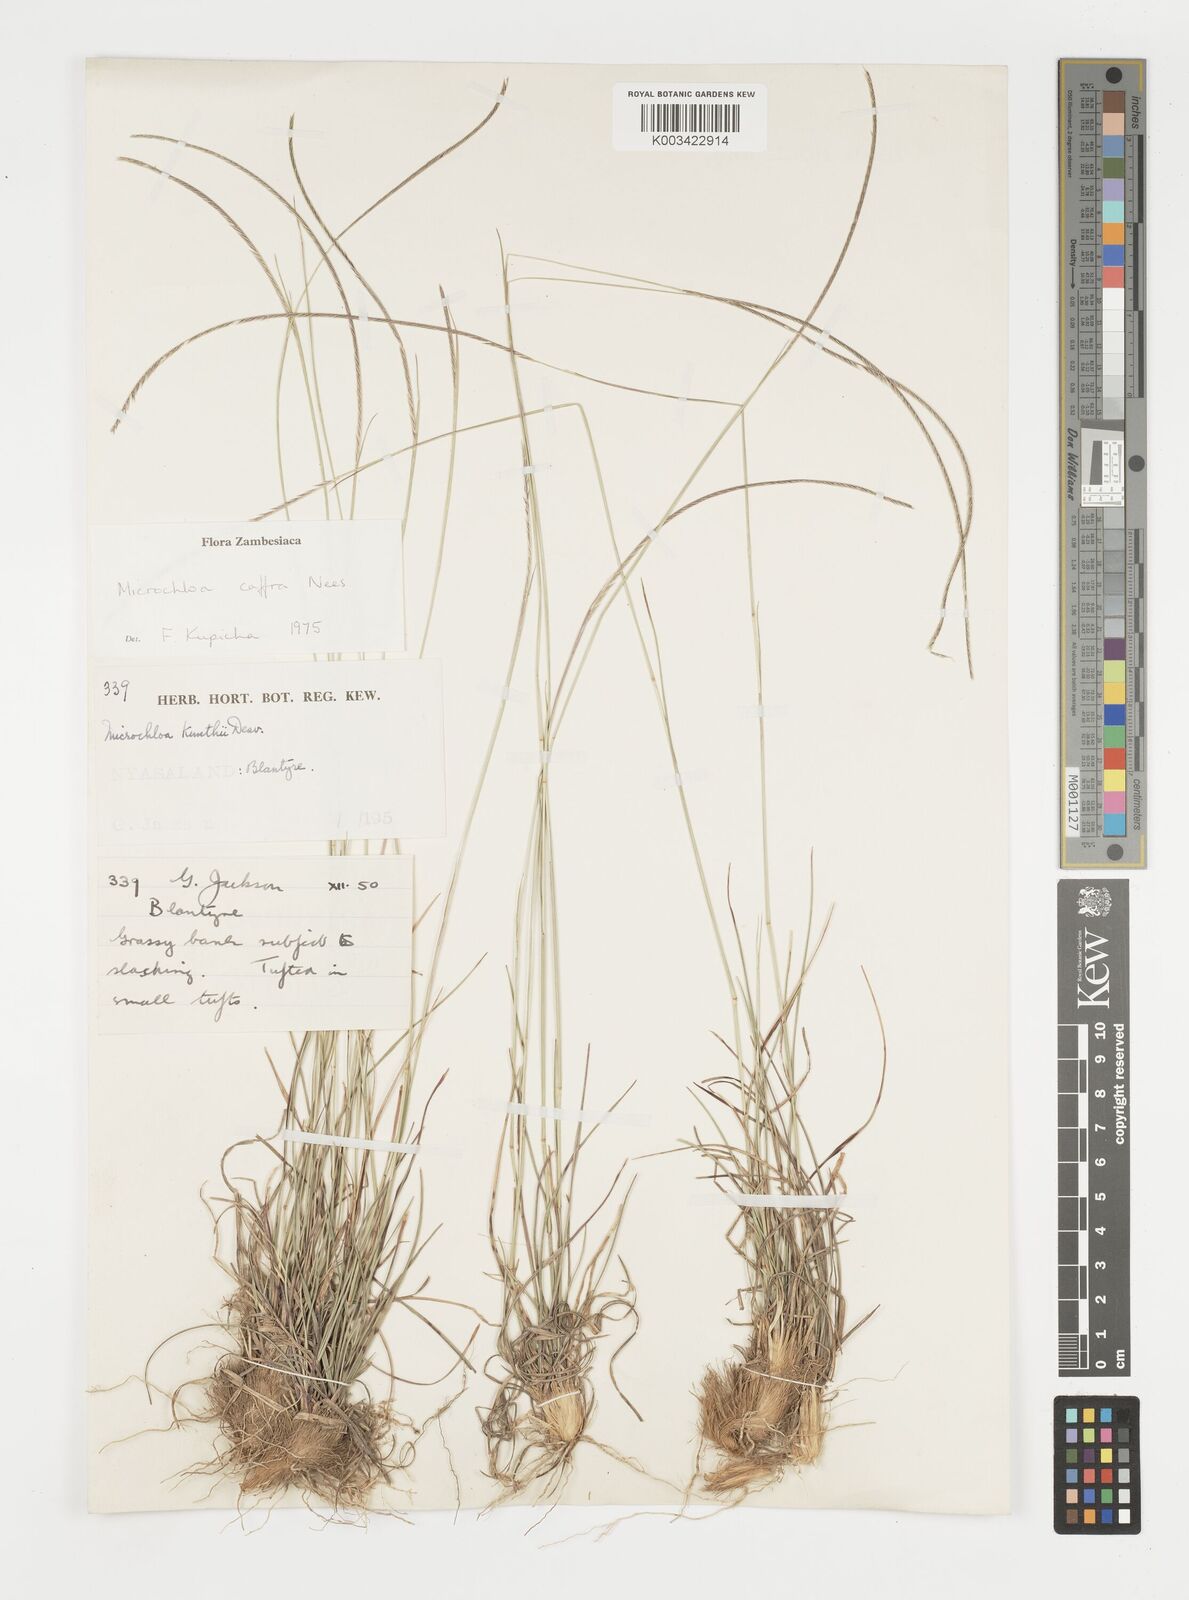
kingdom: Plantae
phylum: Tracheophyta
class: Liliopsida
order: Poales
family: Poaceae
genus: Microchloa
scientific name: Microchloa caffra
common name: Pincushion grass
